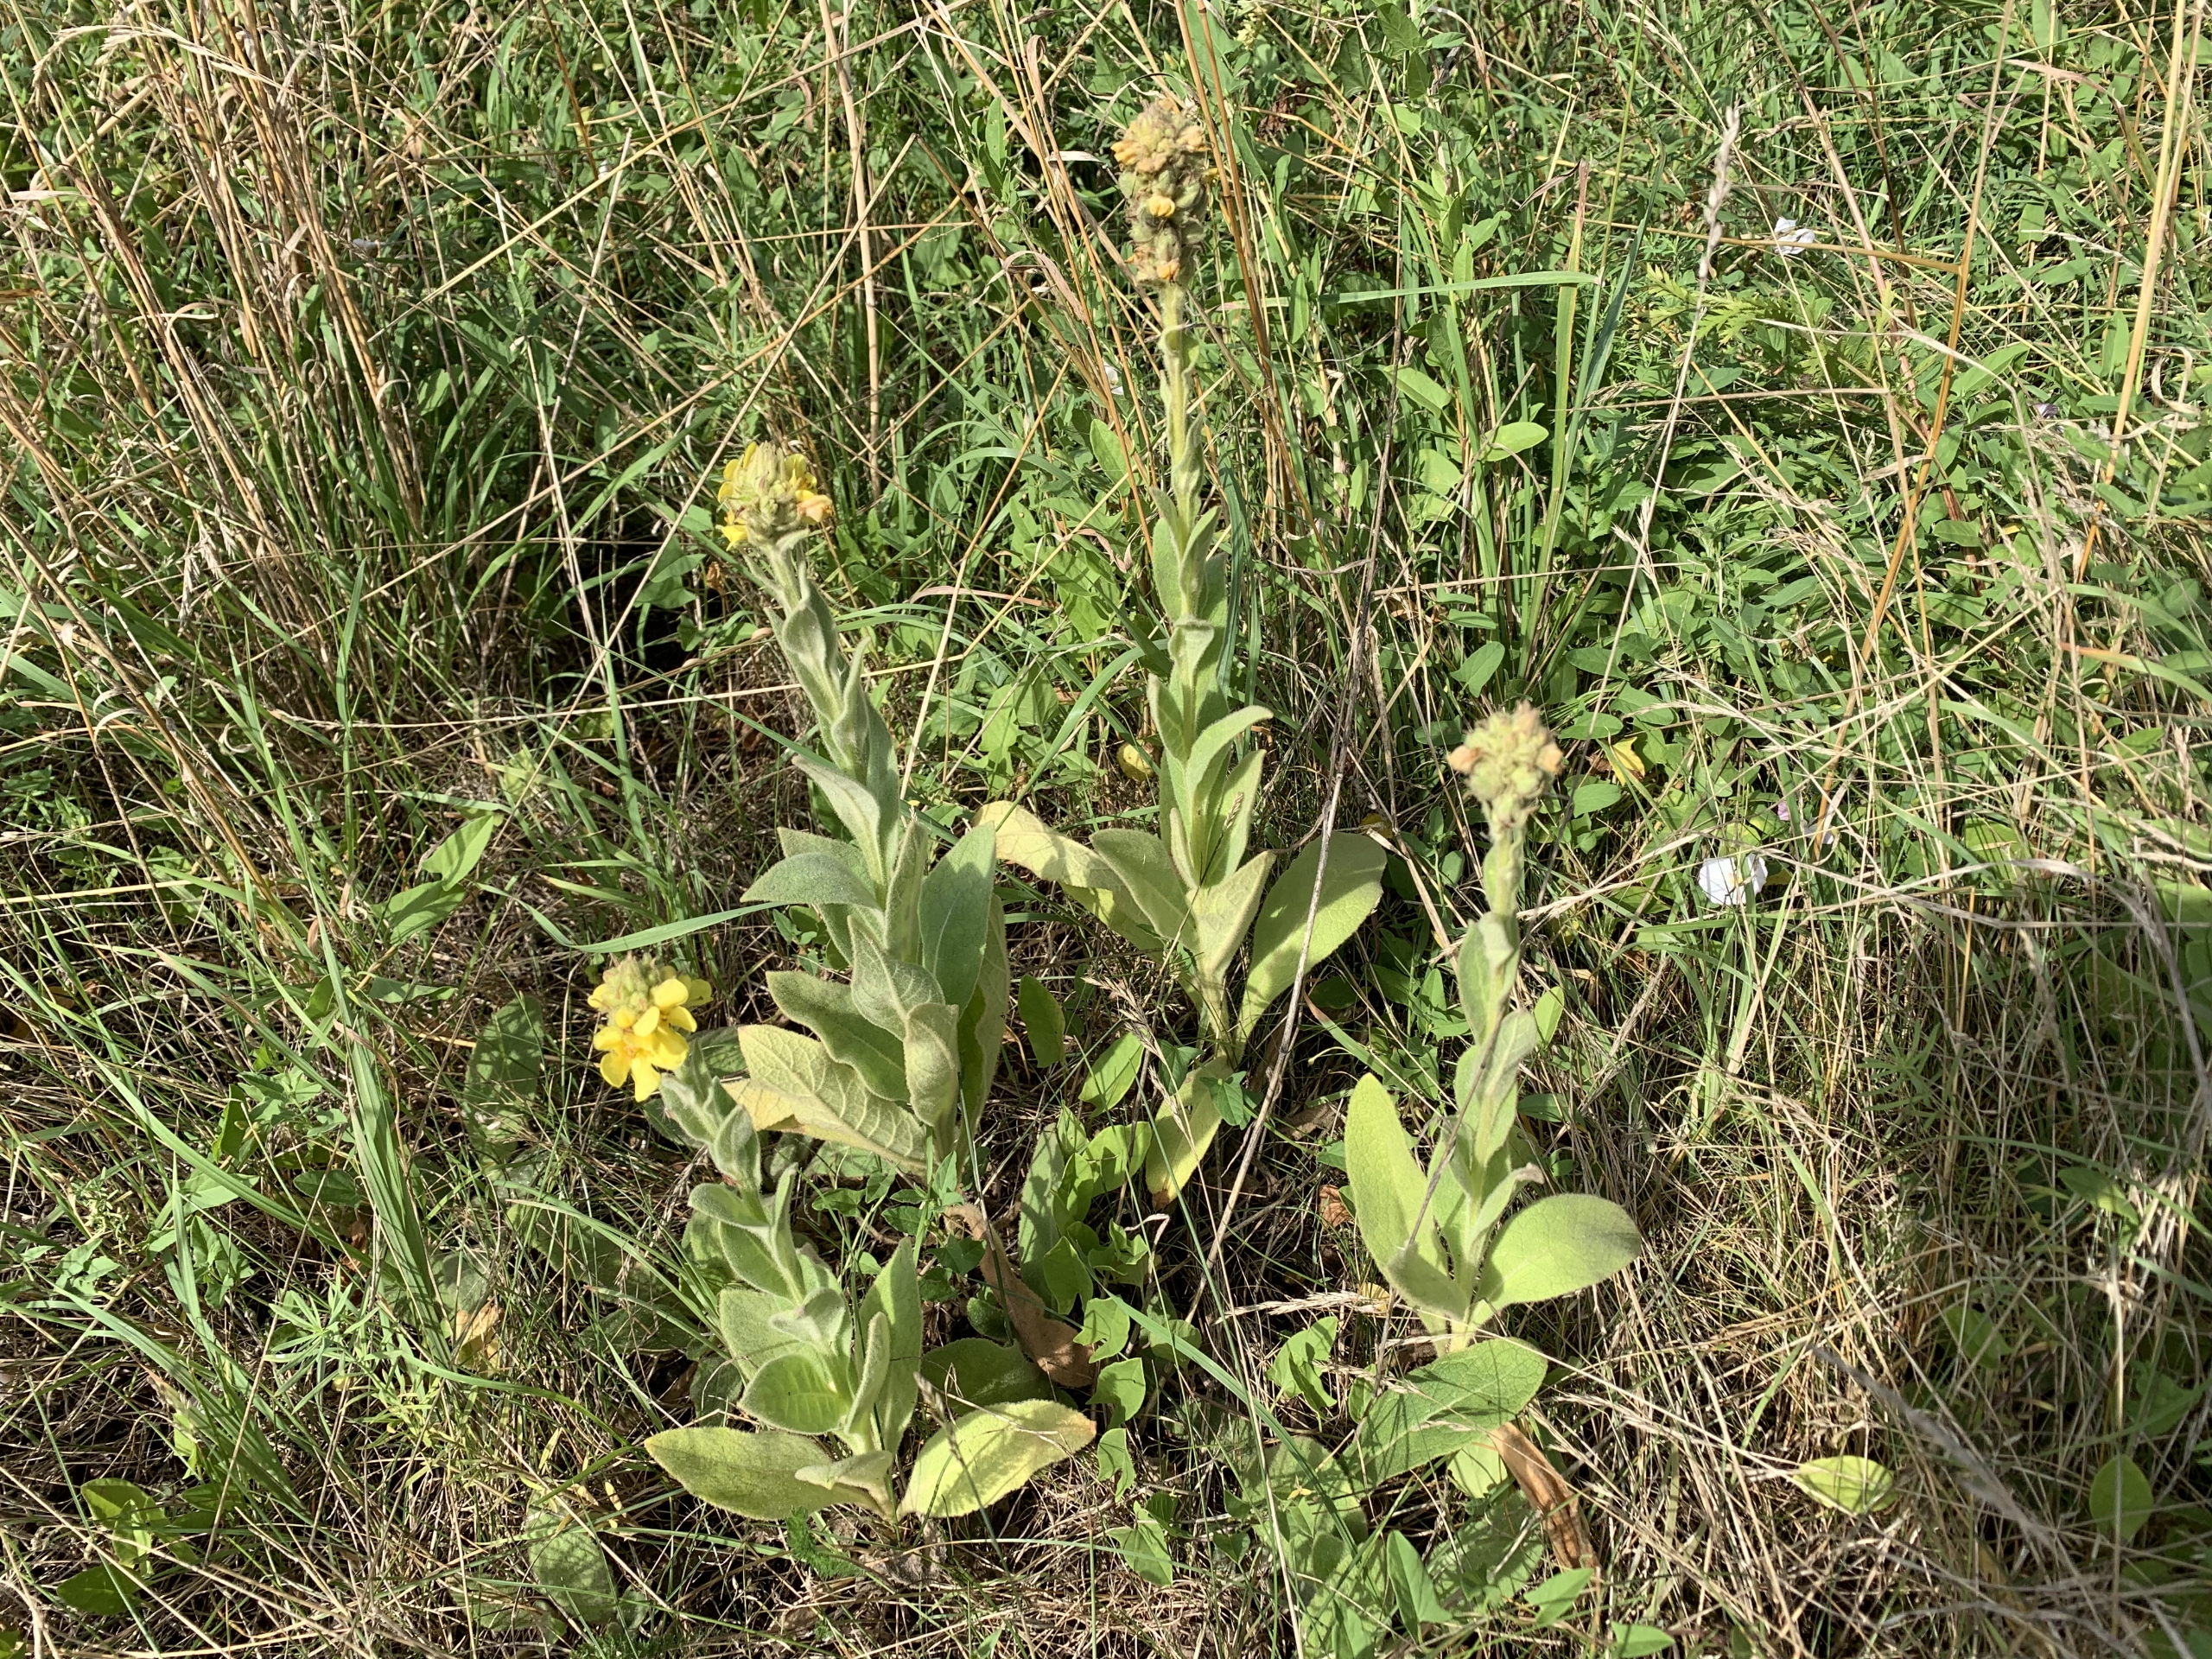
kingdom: Plantae
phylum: Tracheophyta
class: Magnoliopsida
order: Lamiales
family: Scrophulariaceae
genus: Verbascum
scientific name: Verbascum thapsus
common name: Filtbladet kongelys
